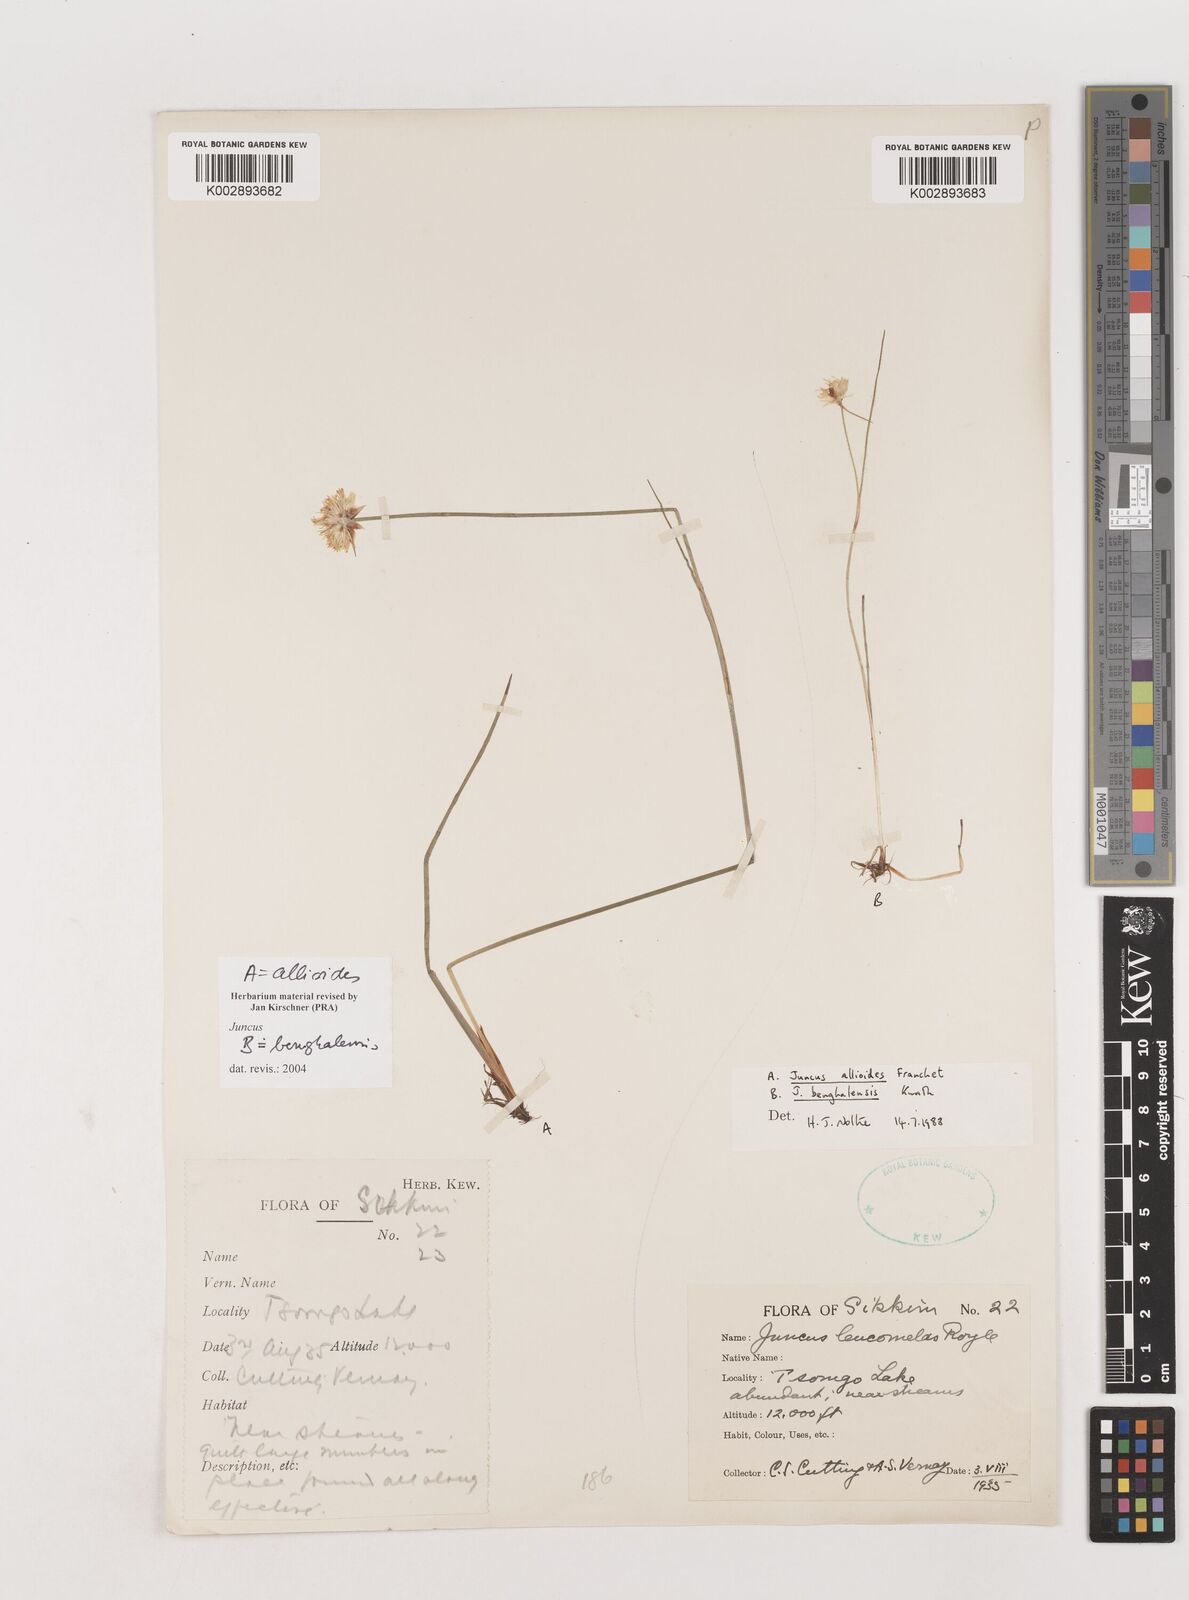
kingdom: Plantae
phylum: Tracheophyta
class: Liliopsida
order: Poales
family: Juncaceae
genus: Juncus
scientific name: Juncus allioides
